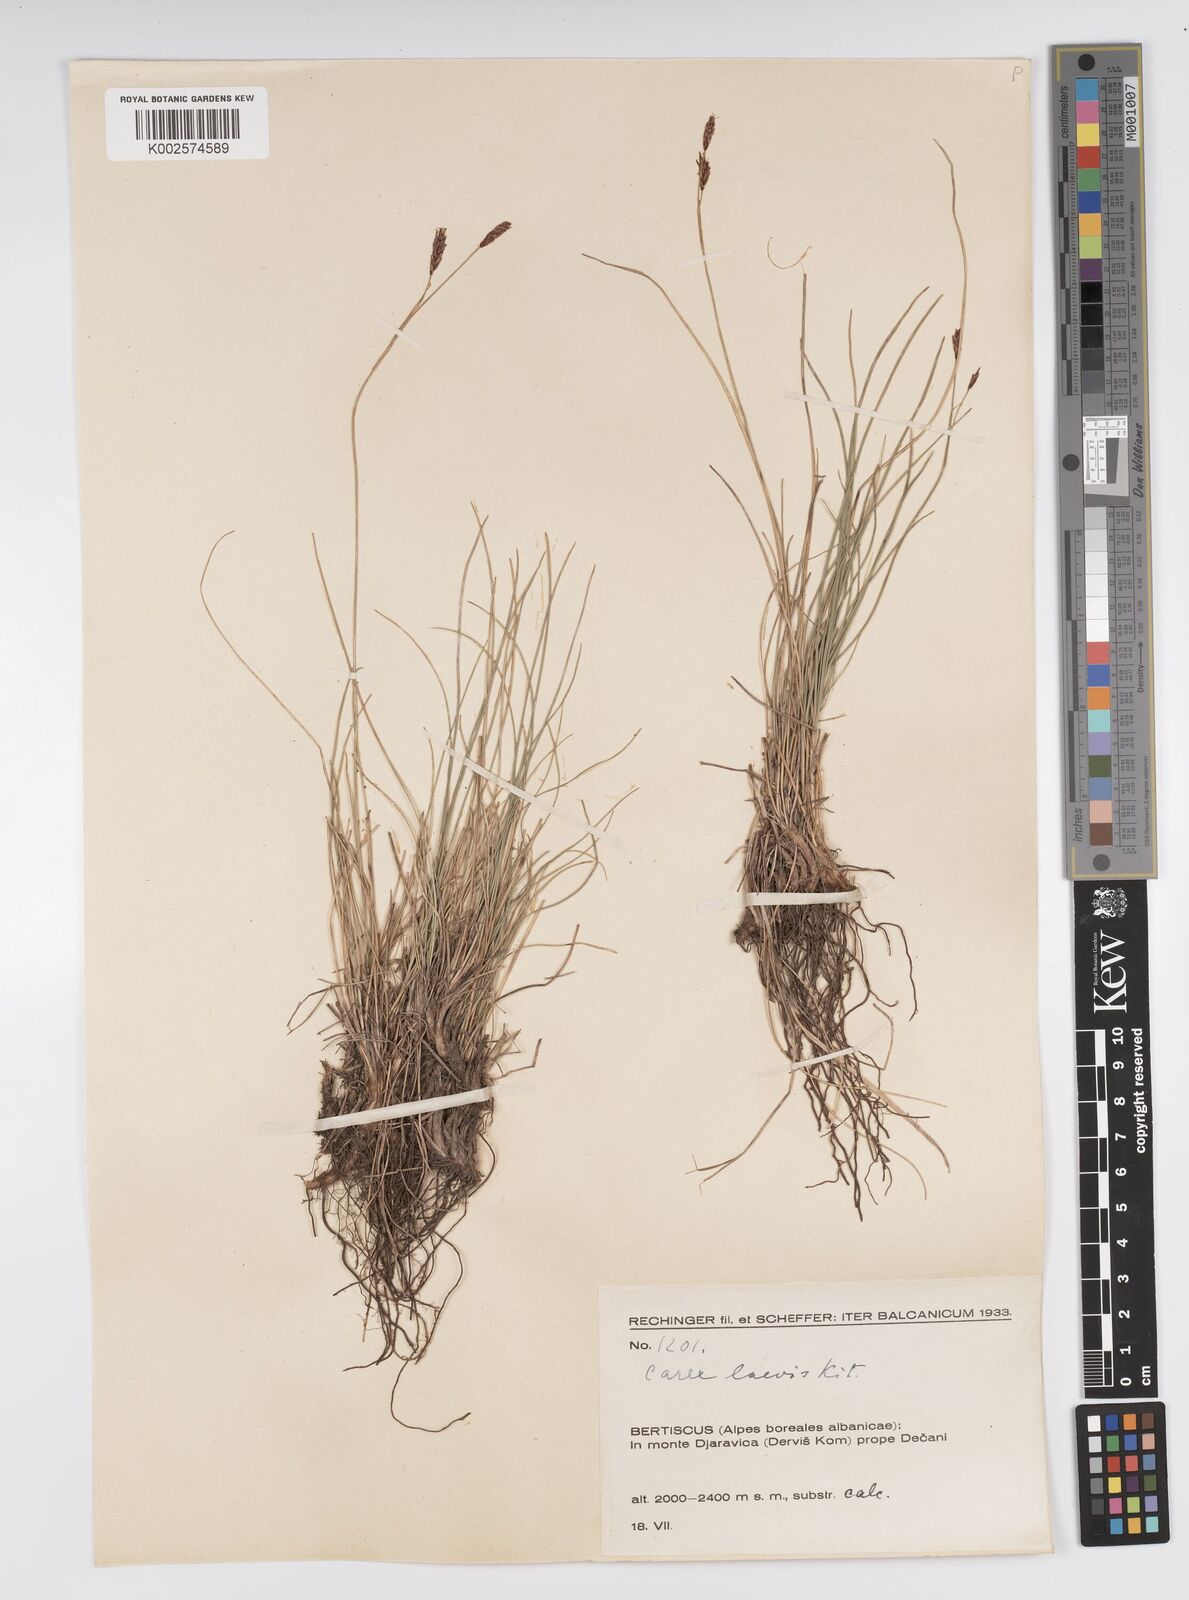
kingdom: Plantae
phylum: Tracheophyta
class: Liliopsida
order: Poales
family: Cyperaceae
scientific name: Cyperaceae
